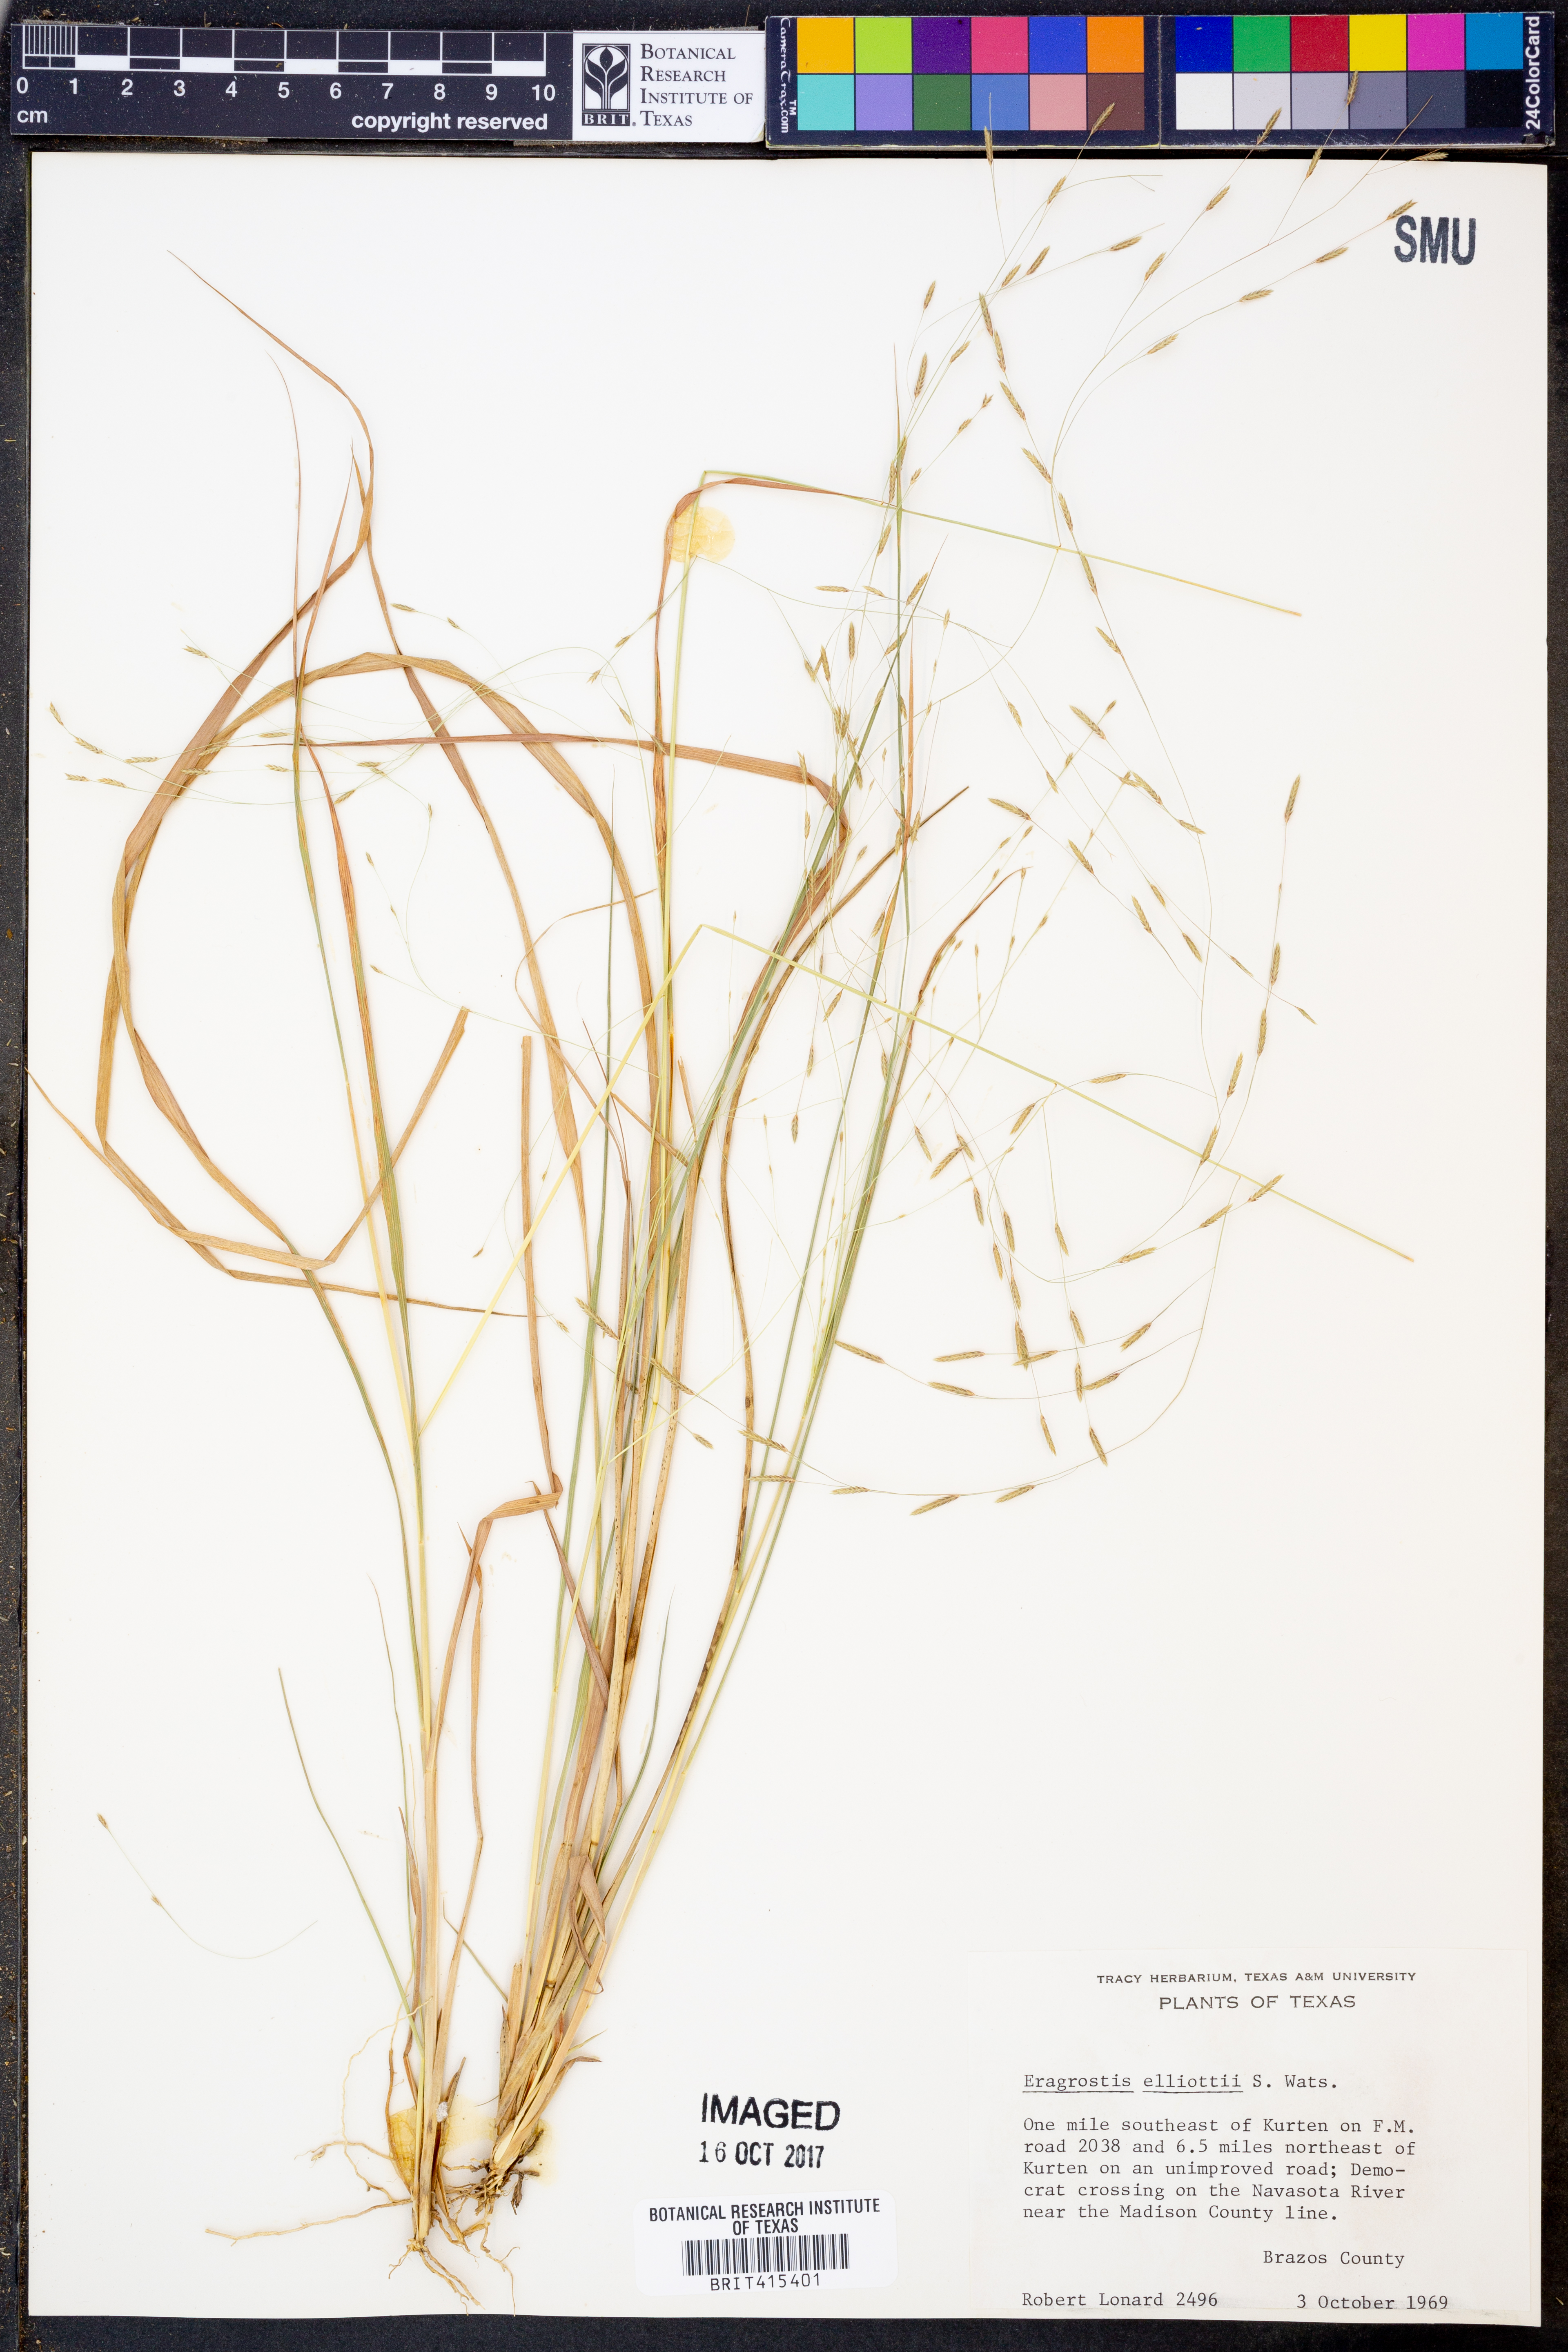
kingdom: Plantae
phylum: Tracheophyta
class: Liliopsida
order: Poales
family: Poaceae
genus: Eragrostis
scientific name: Eragrostis elliottii
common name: Elliott's love grass
